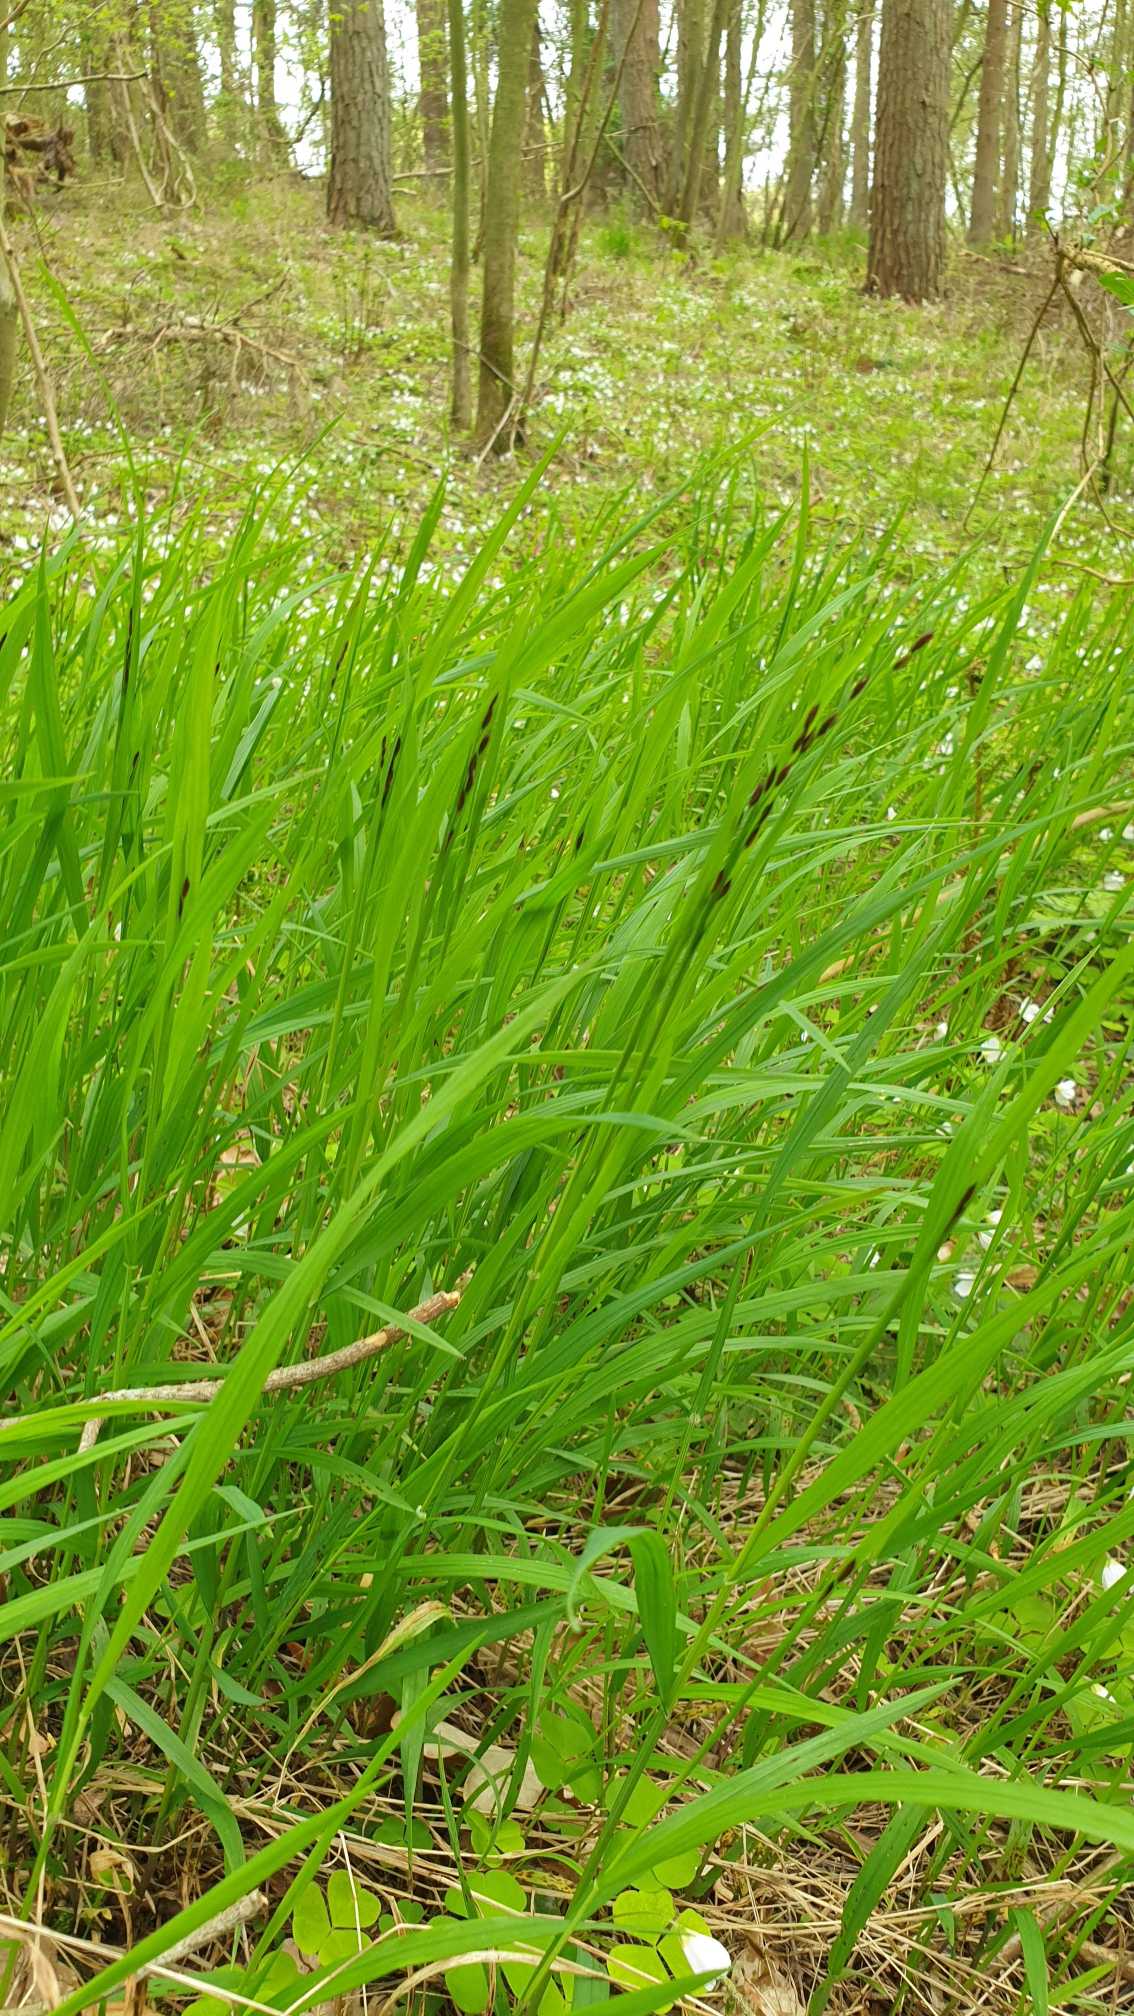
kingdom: Plantae
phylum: Tracheophyta
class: Liliopsida
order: Poales
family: Poaceae
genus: Melica
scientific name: Melica uniflora
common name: Enblomstret flitteraks
